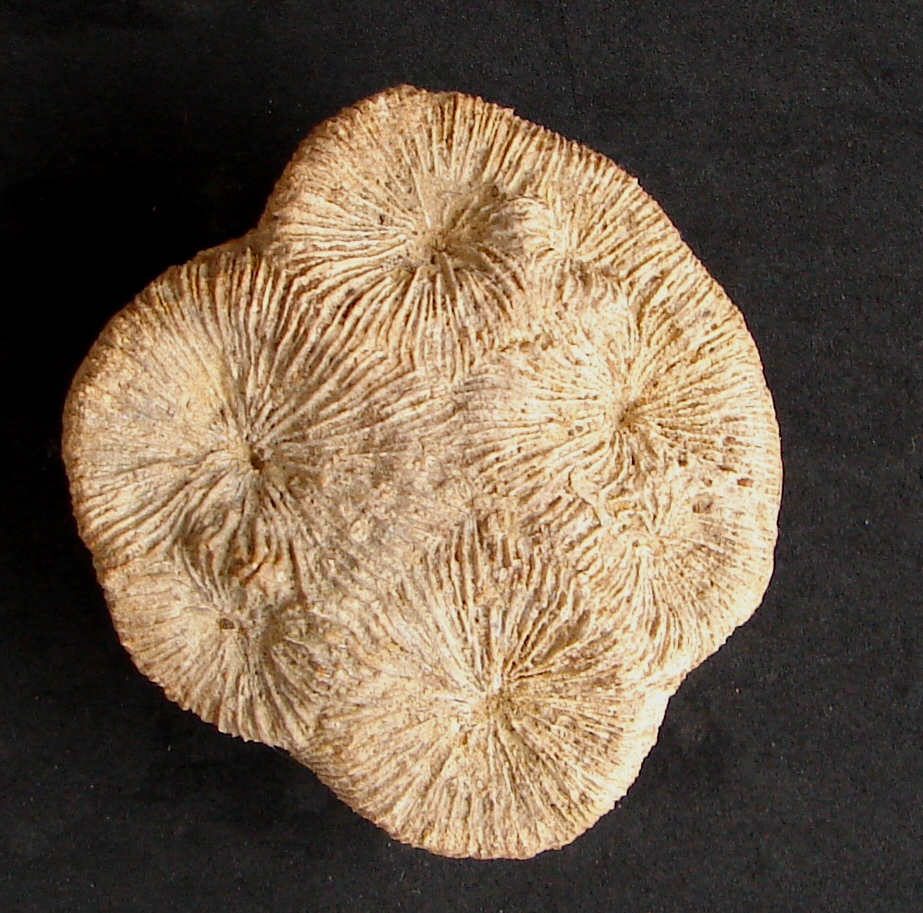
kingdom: Animalia
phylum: Cnidaria
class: Anthozoa
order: Scleractinia
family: Thecosmiliidae
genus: Complexastrea
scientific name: Complexastrea Lithodendron zollerianum
